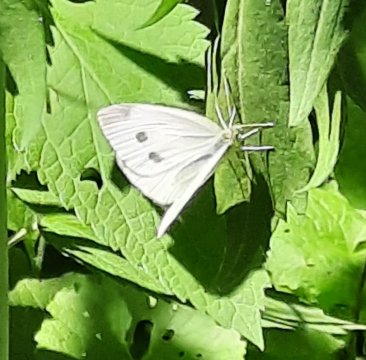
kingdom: Animalia
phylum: Arthropoda
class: Insecta
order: Lepidoptera
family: Pieridae
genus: Pieris
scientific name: Pieris rapae
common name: Cabbage White
